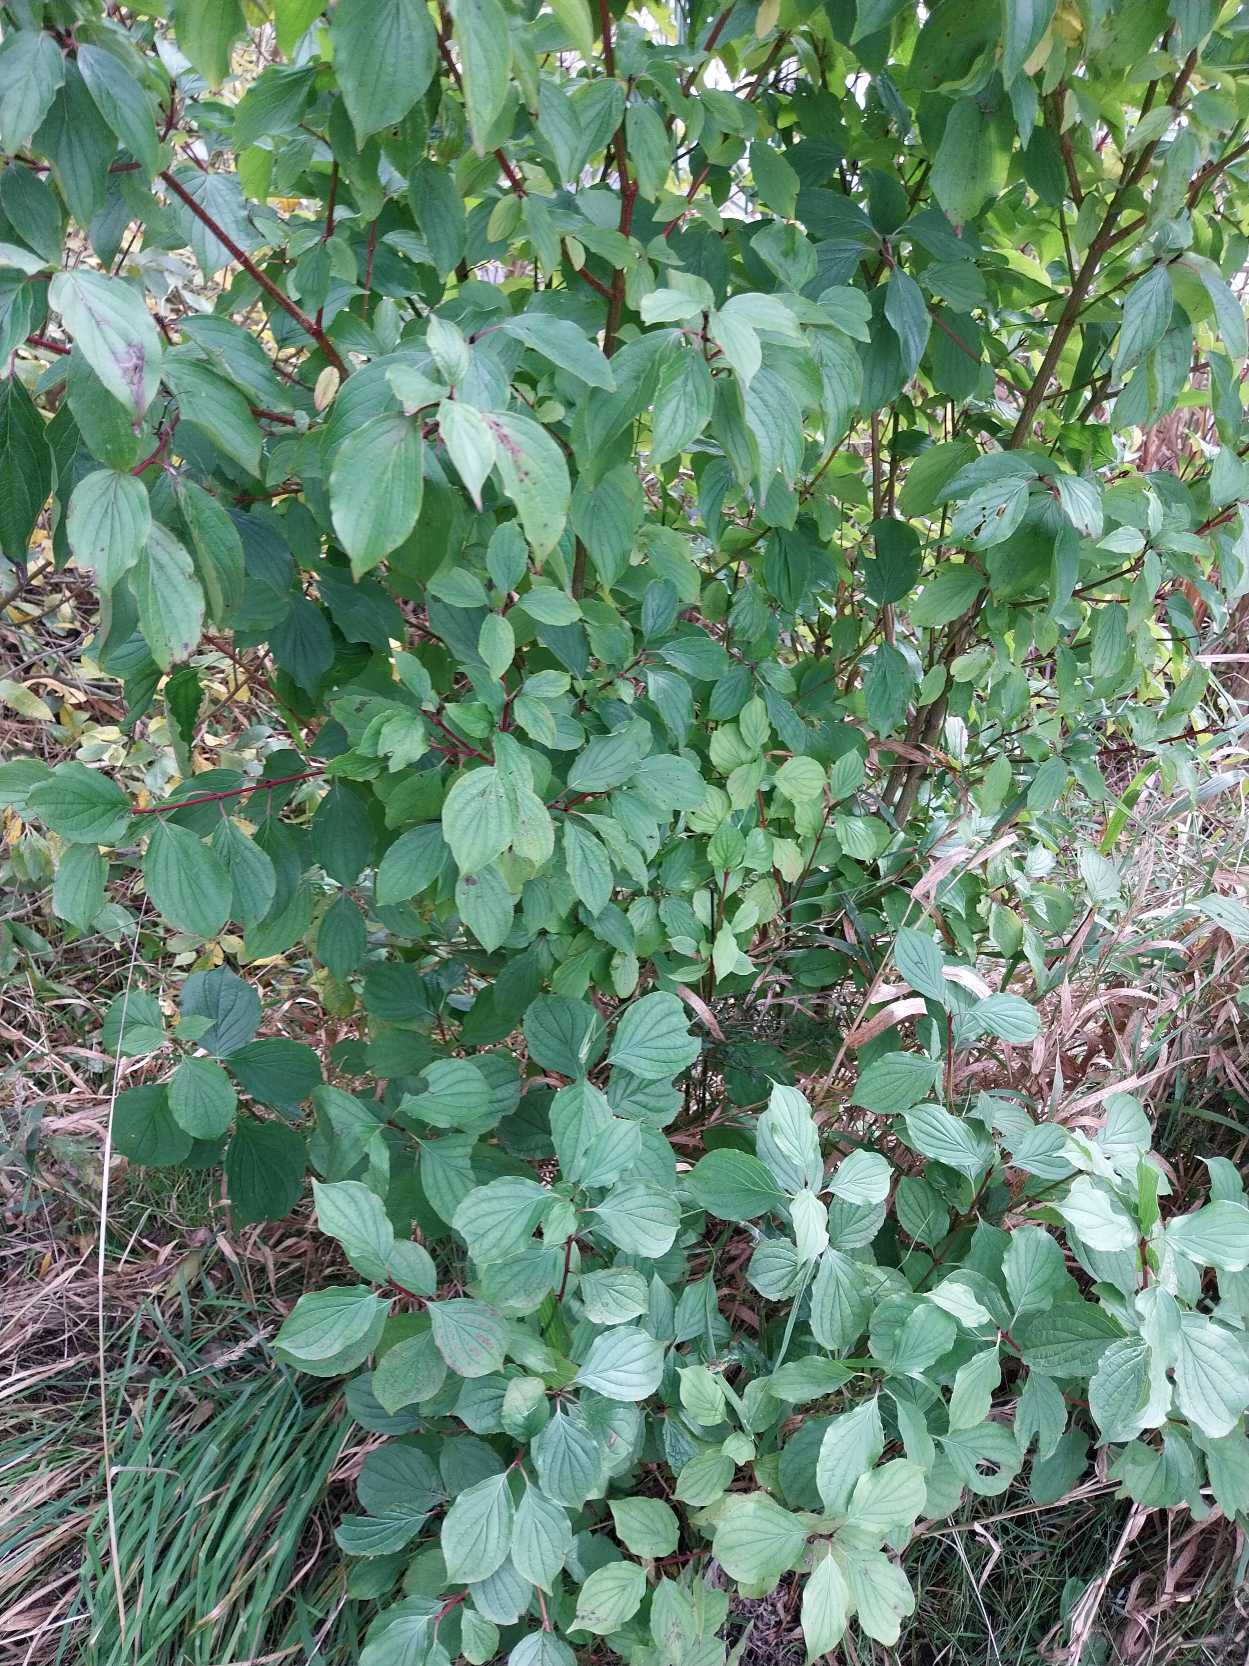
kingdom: Plantae
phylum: Tracheophyta
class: Magnoliopsida
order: Cornales
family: Cornaceae
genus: Cornus
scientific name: Cornus sanguinea
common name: Rød kornel
